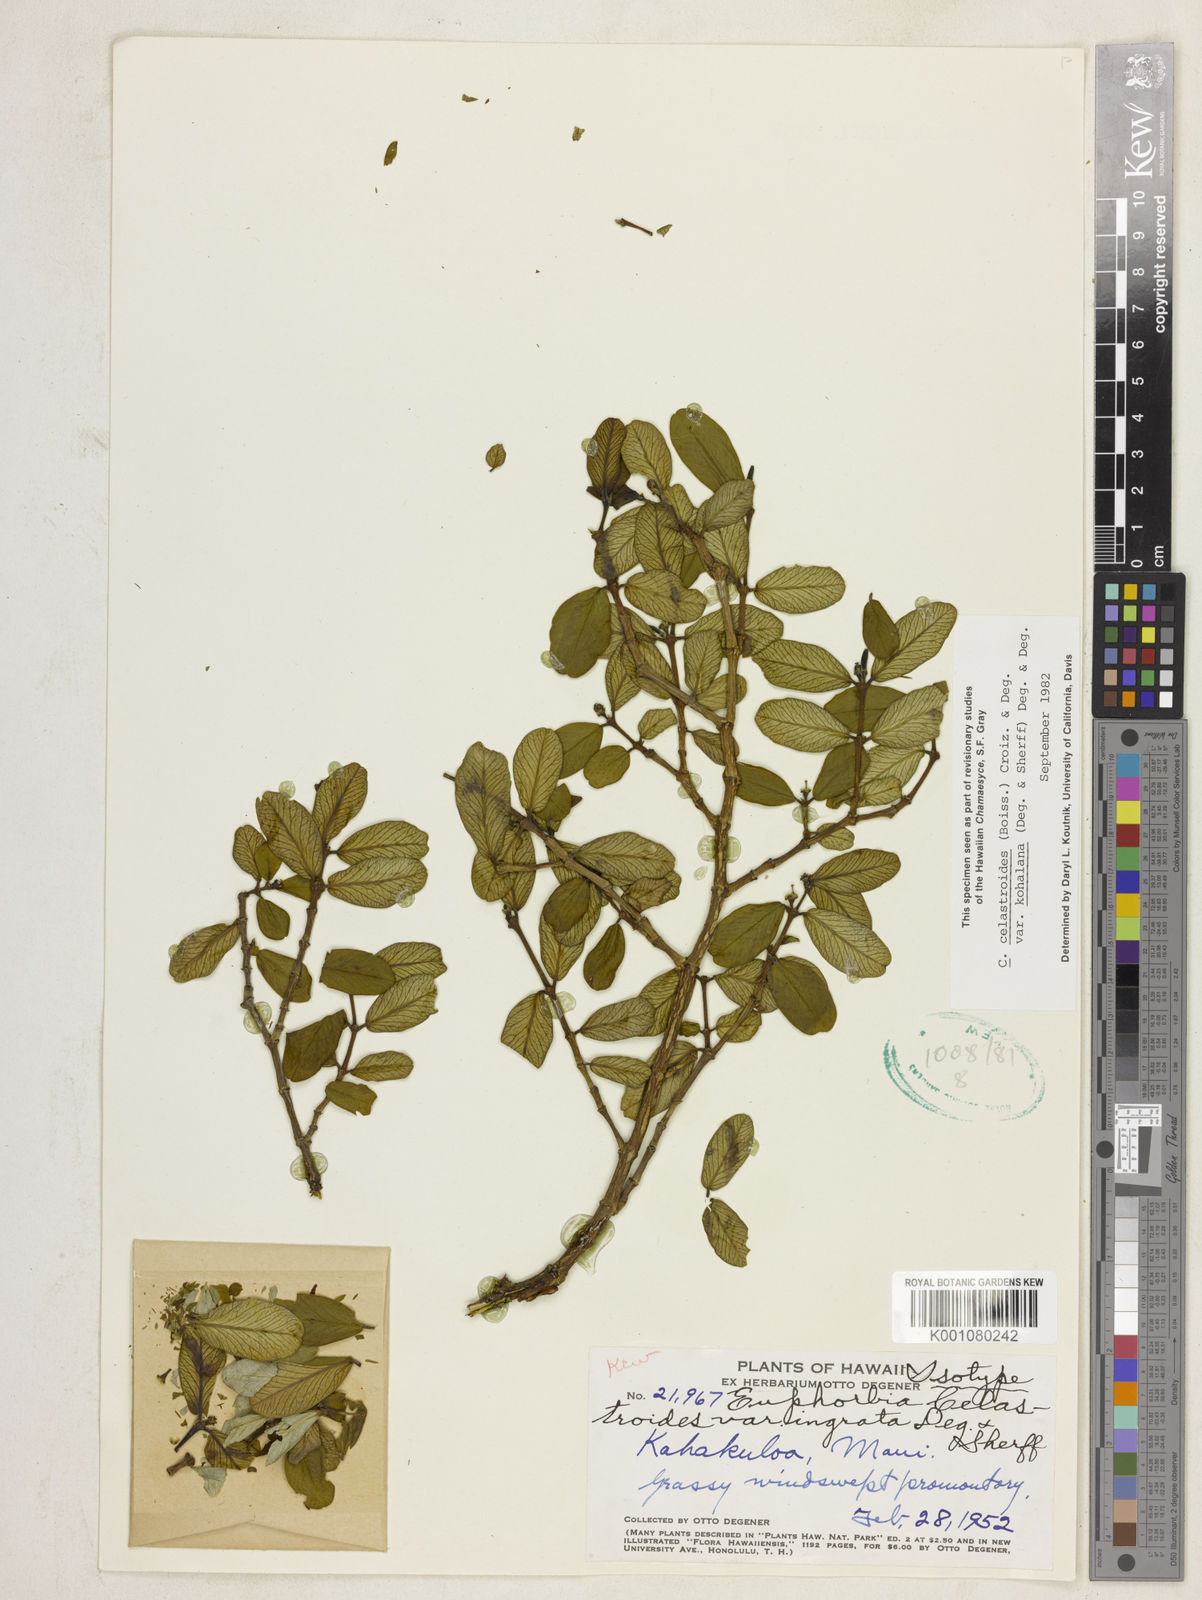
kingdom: Plantae
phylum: Tracheophyta
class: Magnoliopsida
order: Malpighiales
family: Euphorbiaceae
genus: Euphorbia
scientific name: Euphorbia celastroides
